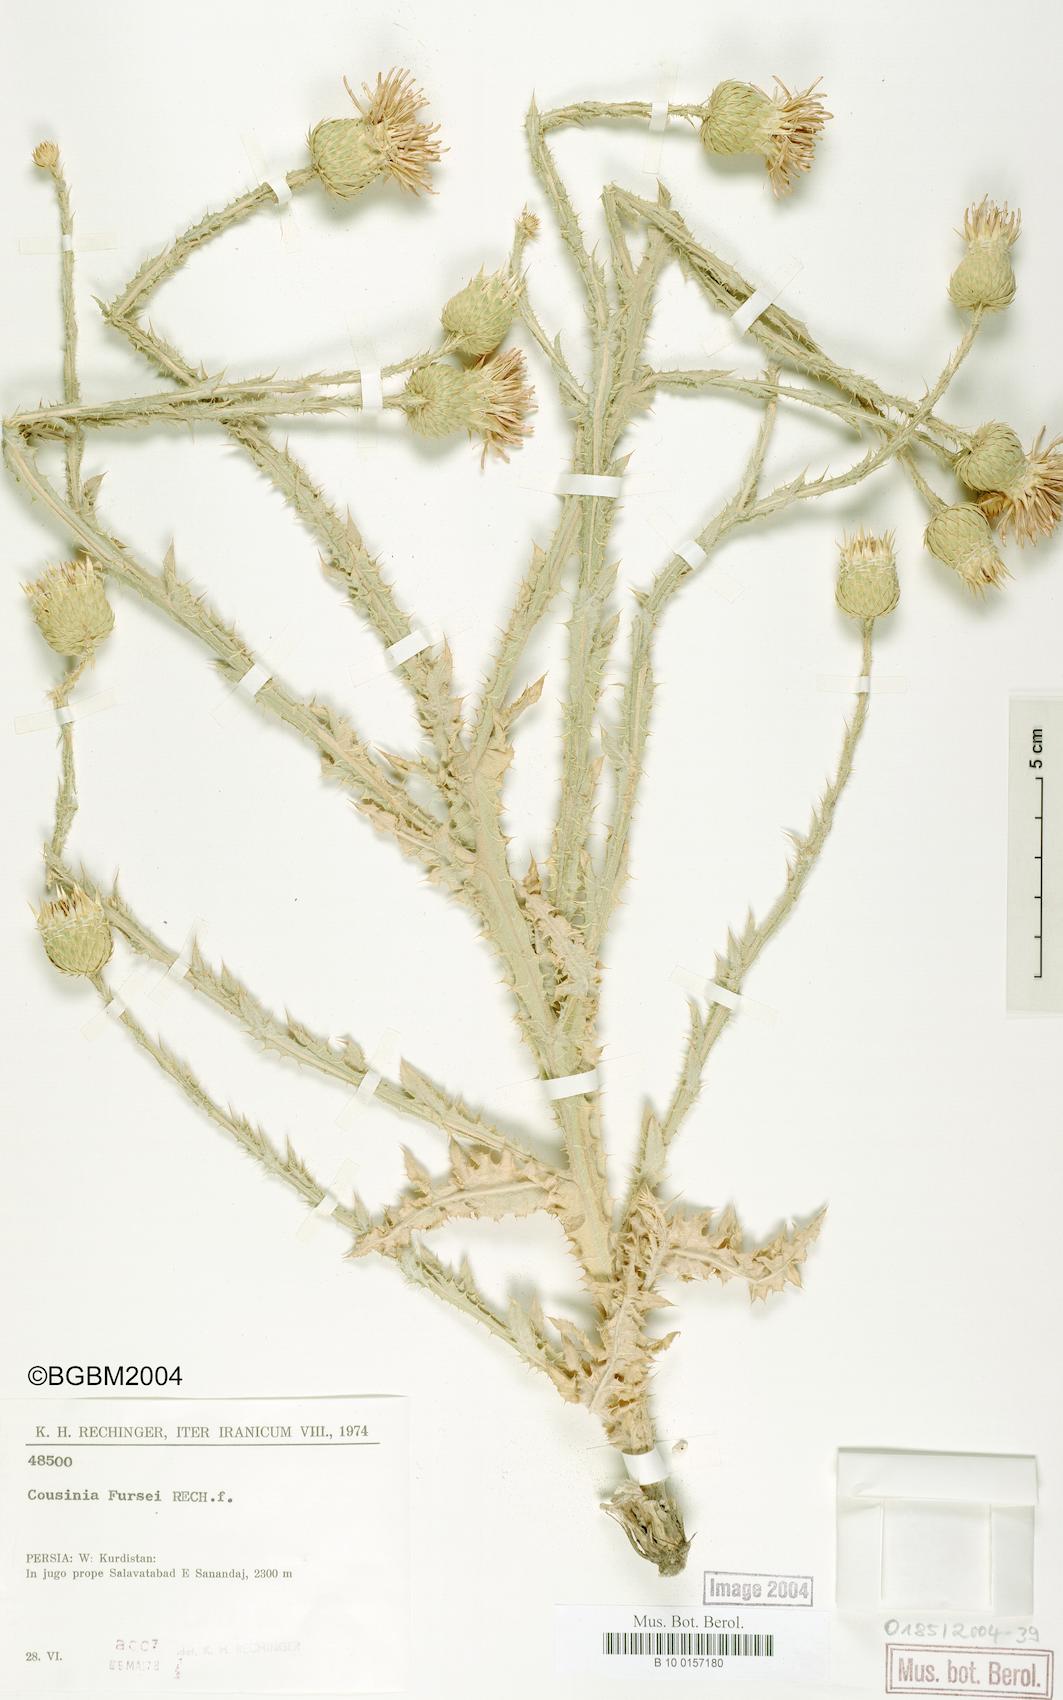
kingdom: Plantae
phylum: Tracheophyta
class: Magnoliopsida
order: Asterales
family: Asteraceae
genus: Cousinia
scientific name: Cousinia fursei
